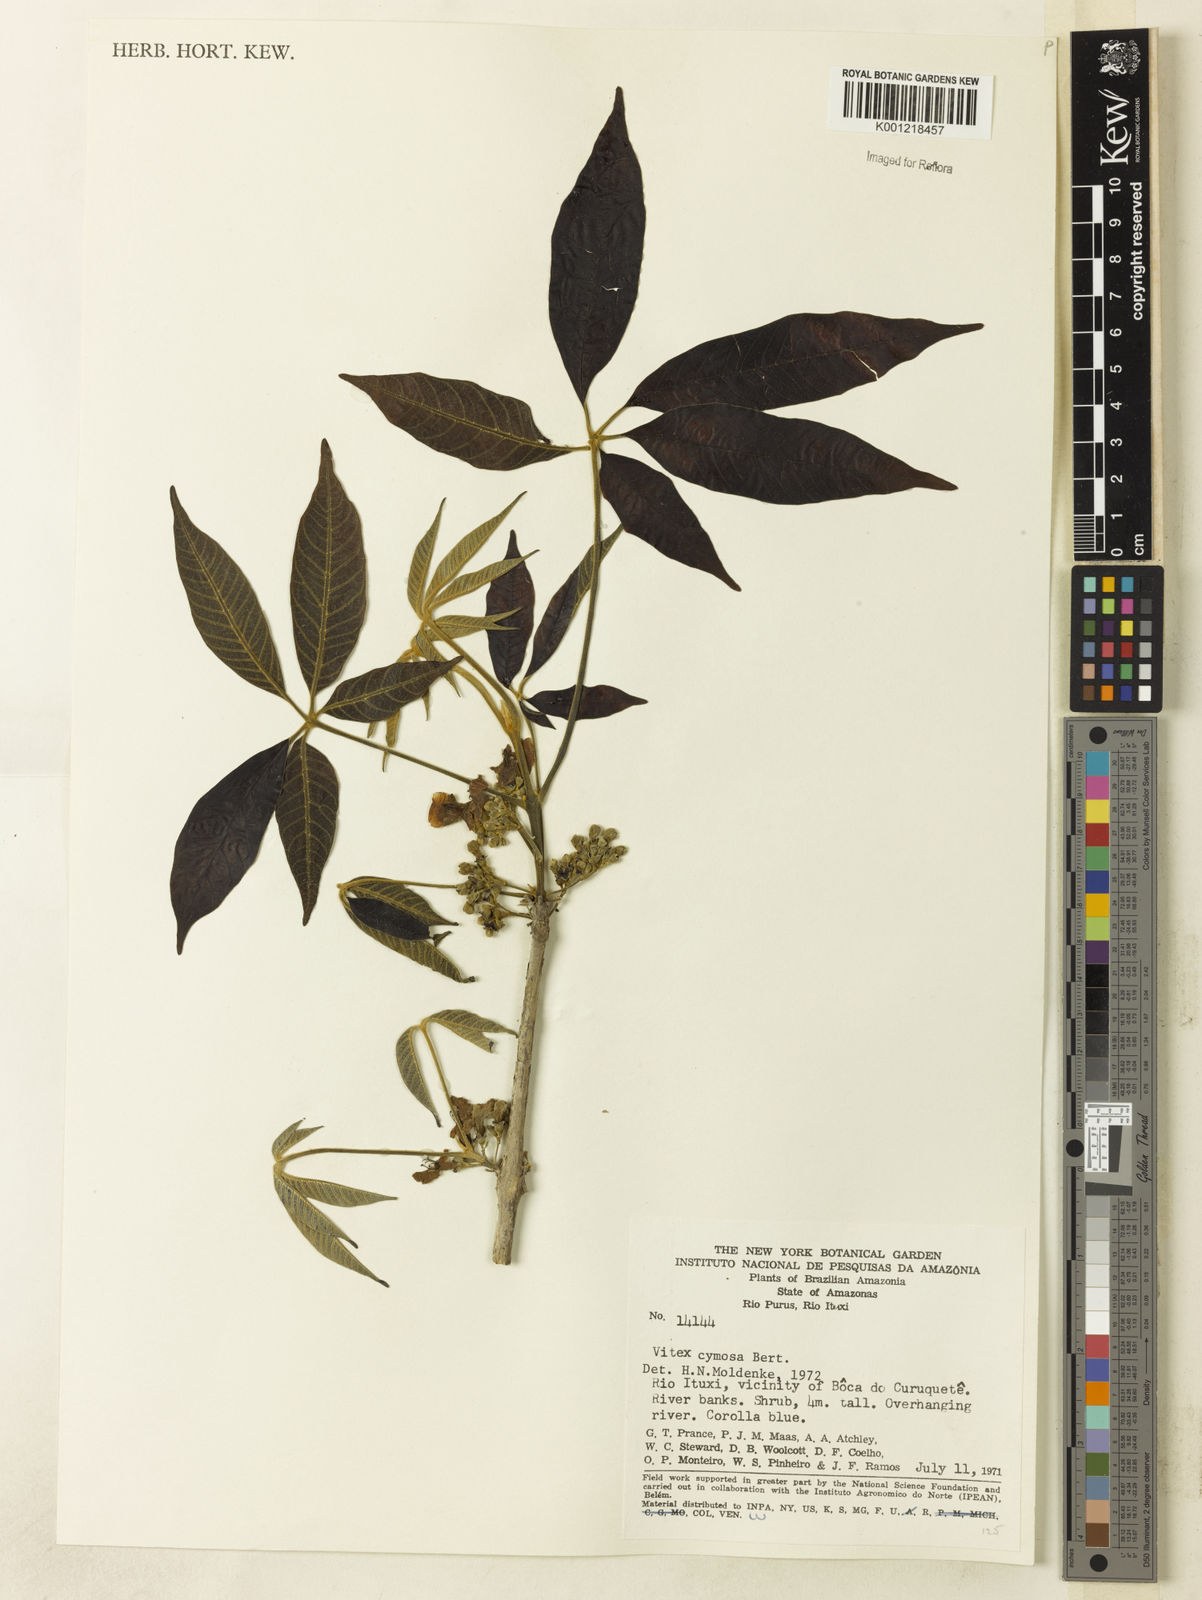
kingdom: Plantae
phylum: Tracheophyta
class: Magnoliopsida
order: Lamiales
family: Lamiaceae
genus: Vitex
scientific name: Vitex cymosa
